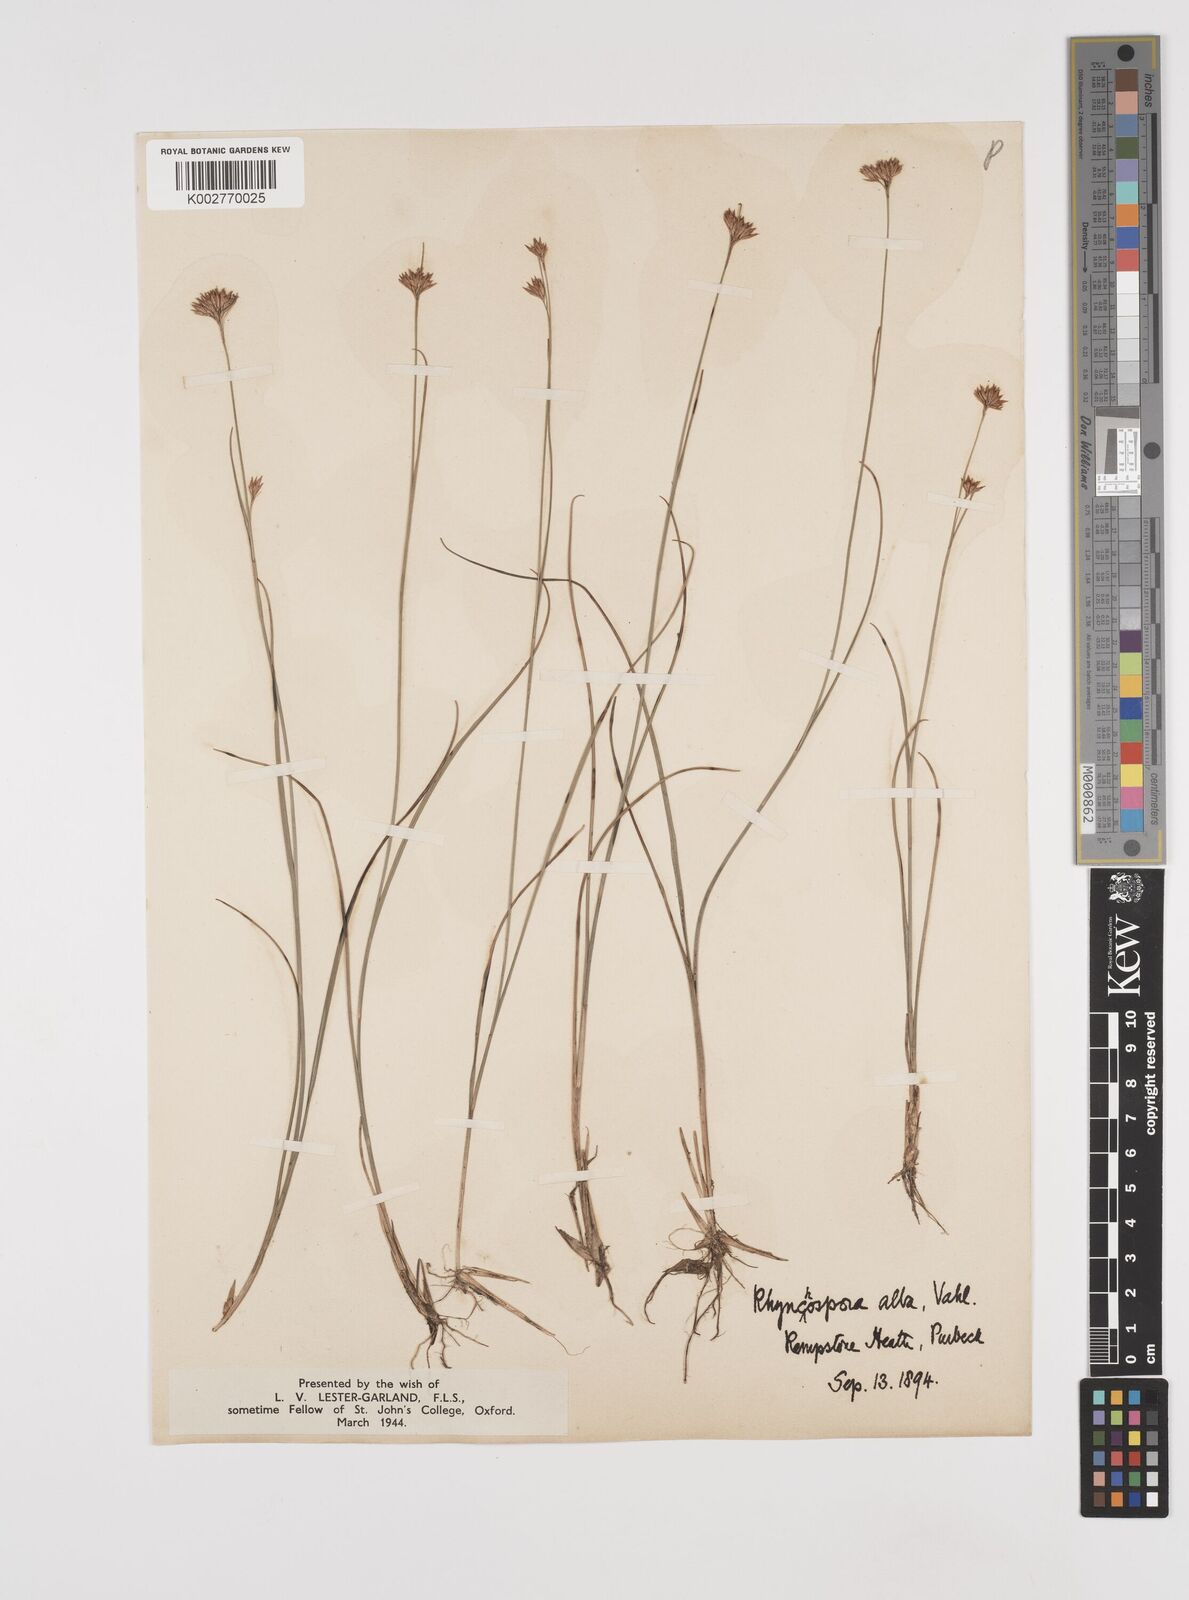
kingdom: Plantae
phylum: Tracheophyta
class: Liliopsida
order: Poales
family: Cyperaceae
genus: Rhynchospora
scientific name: Rhynchospora alba
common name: White beak-sedge
